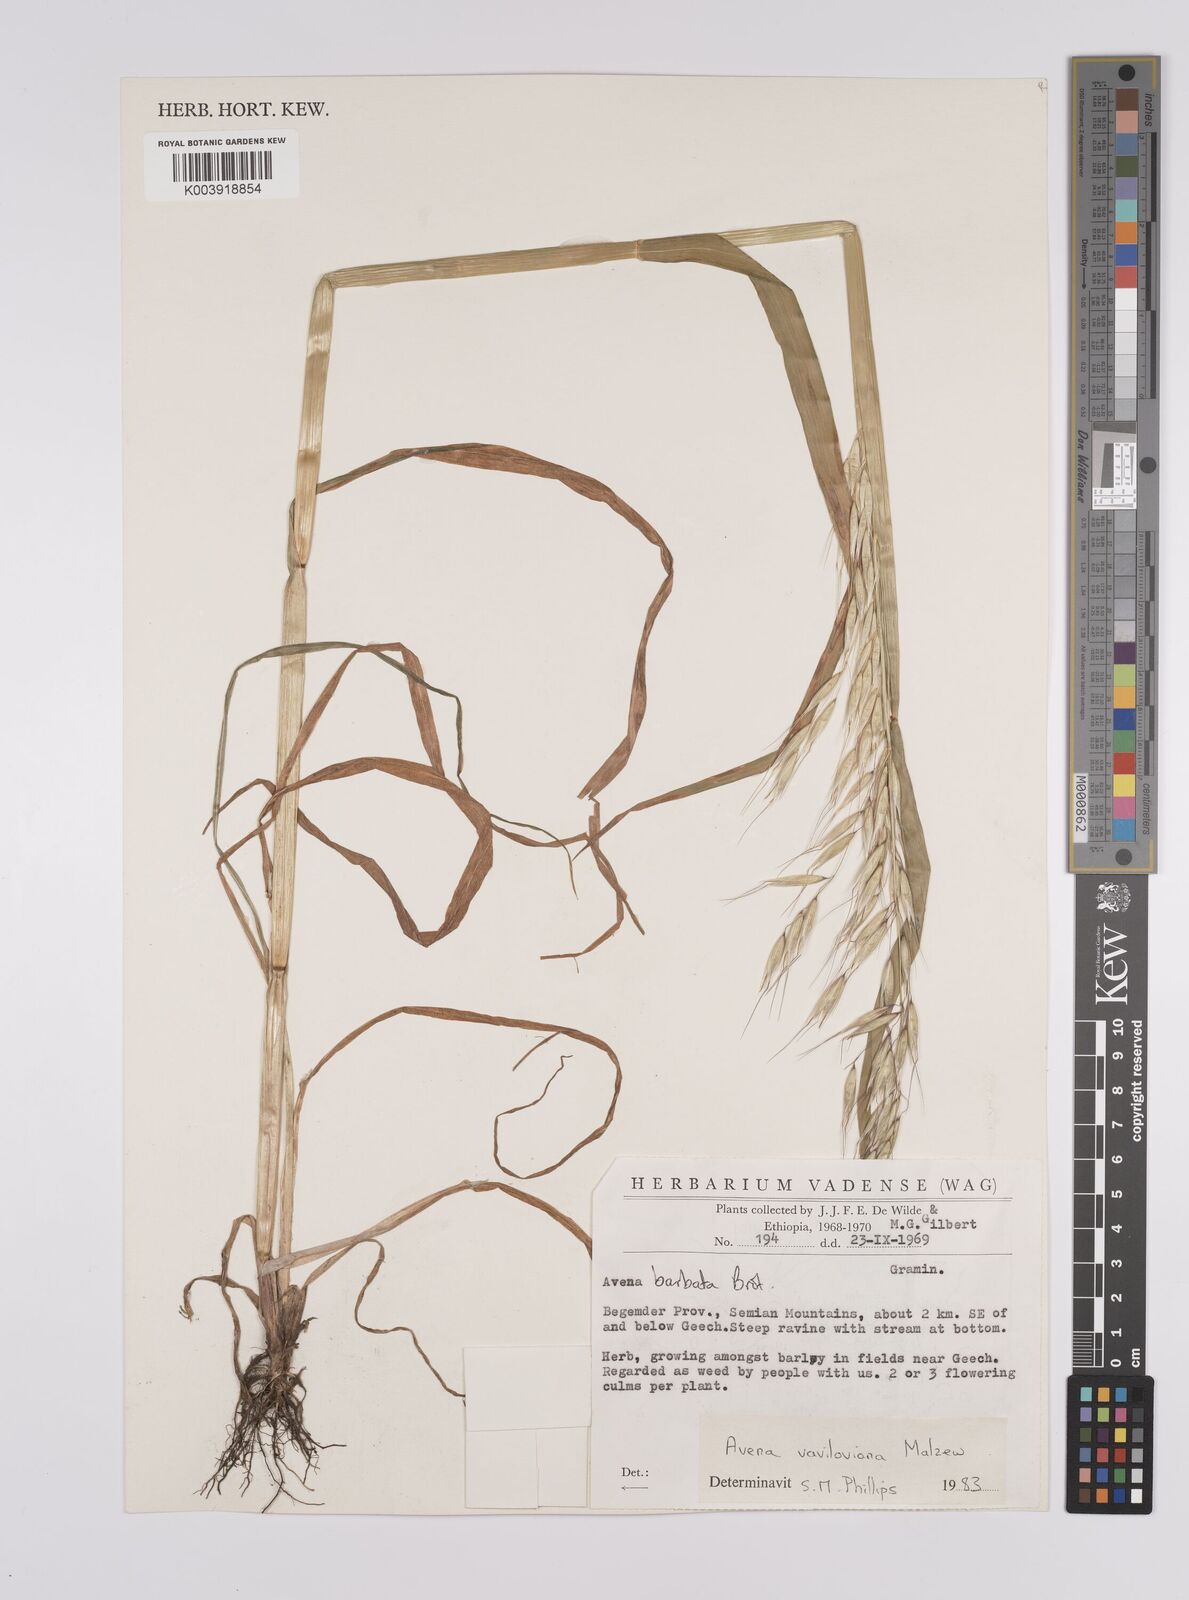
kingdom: Plantae
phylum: Tracheophyta
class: Liliopsida
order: Poales
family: Poaceae
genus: Avena
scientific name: Avena vaviloviana
